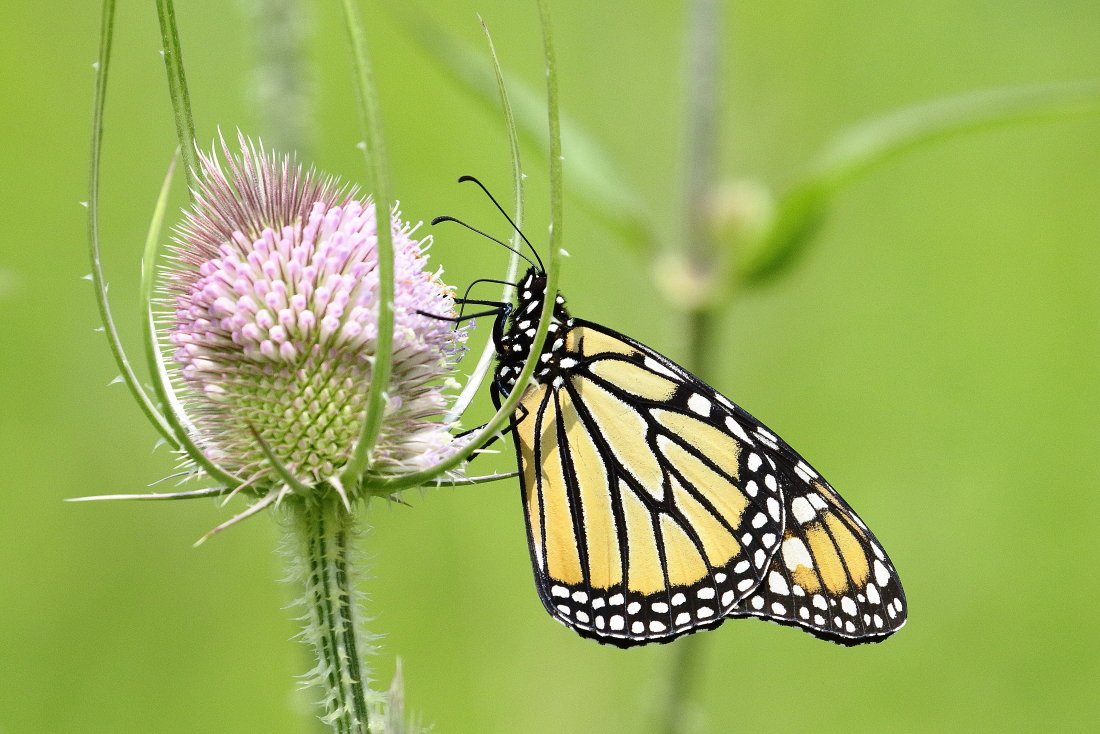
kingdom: Animalia
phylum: Arthropoda
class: Insecta
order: Lepidoptera
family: Nymphalidae
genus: Danaus
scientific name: Danaus plexippus
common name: Monarch
